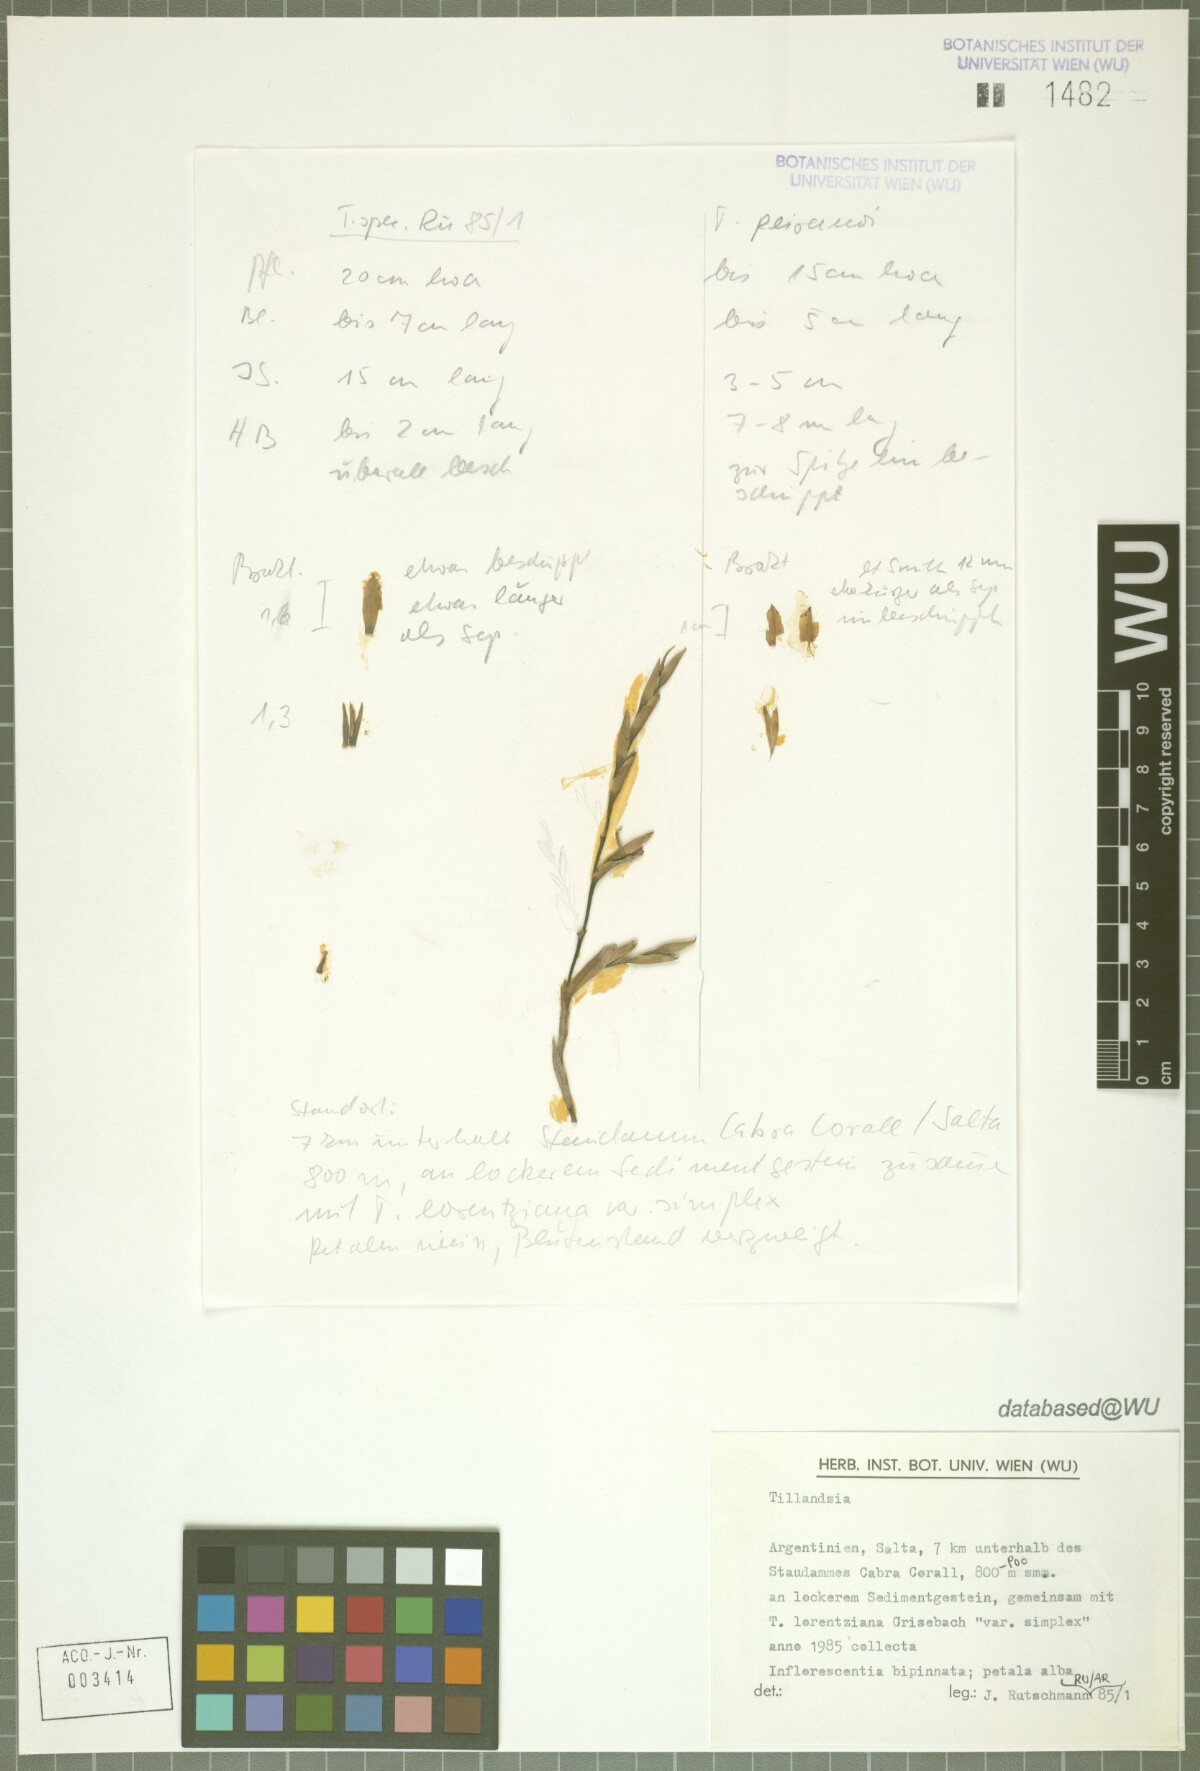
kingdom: Plantae
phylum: Tracheophyta
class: Liliopsida
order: Poales
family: Bromeliaceae
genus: Tillandsia
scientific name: Tillandsia peiranoi
